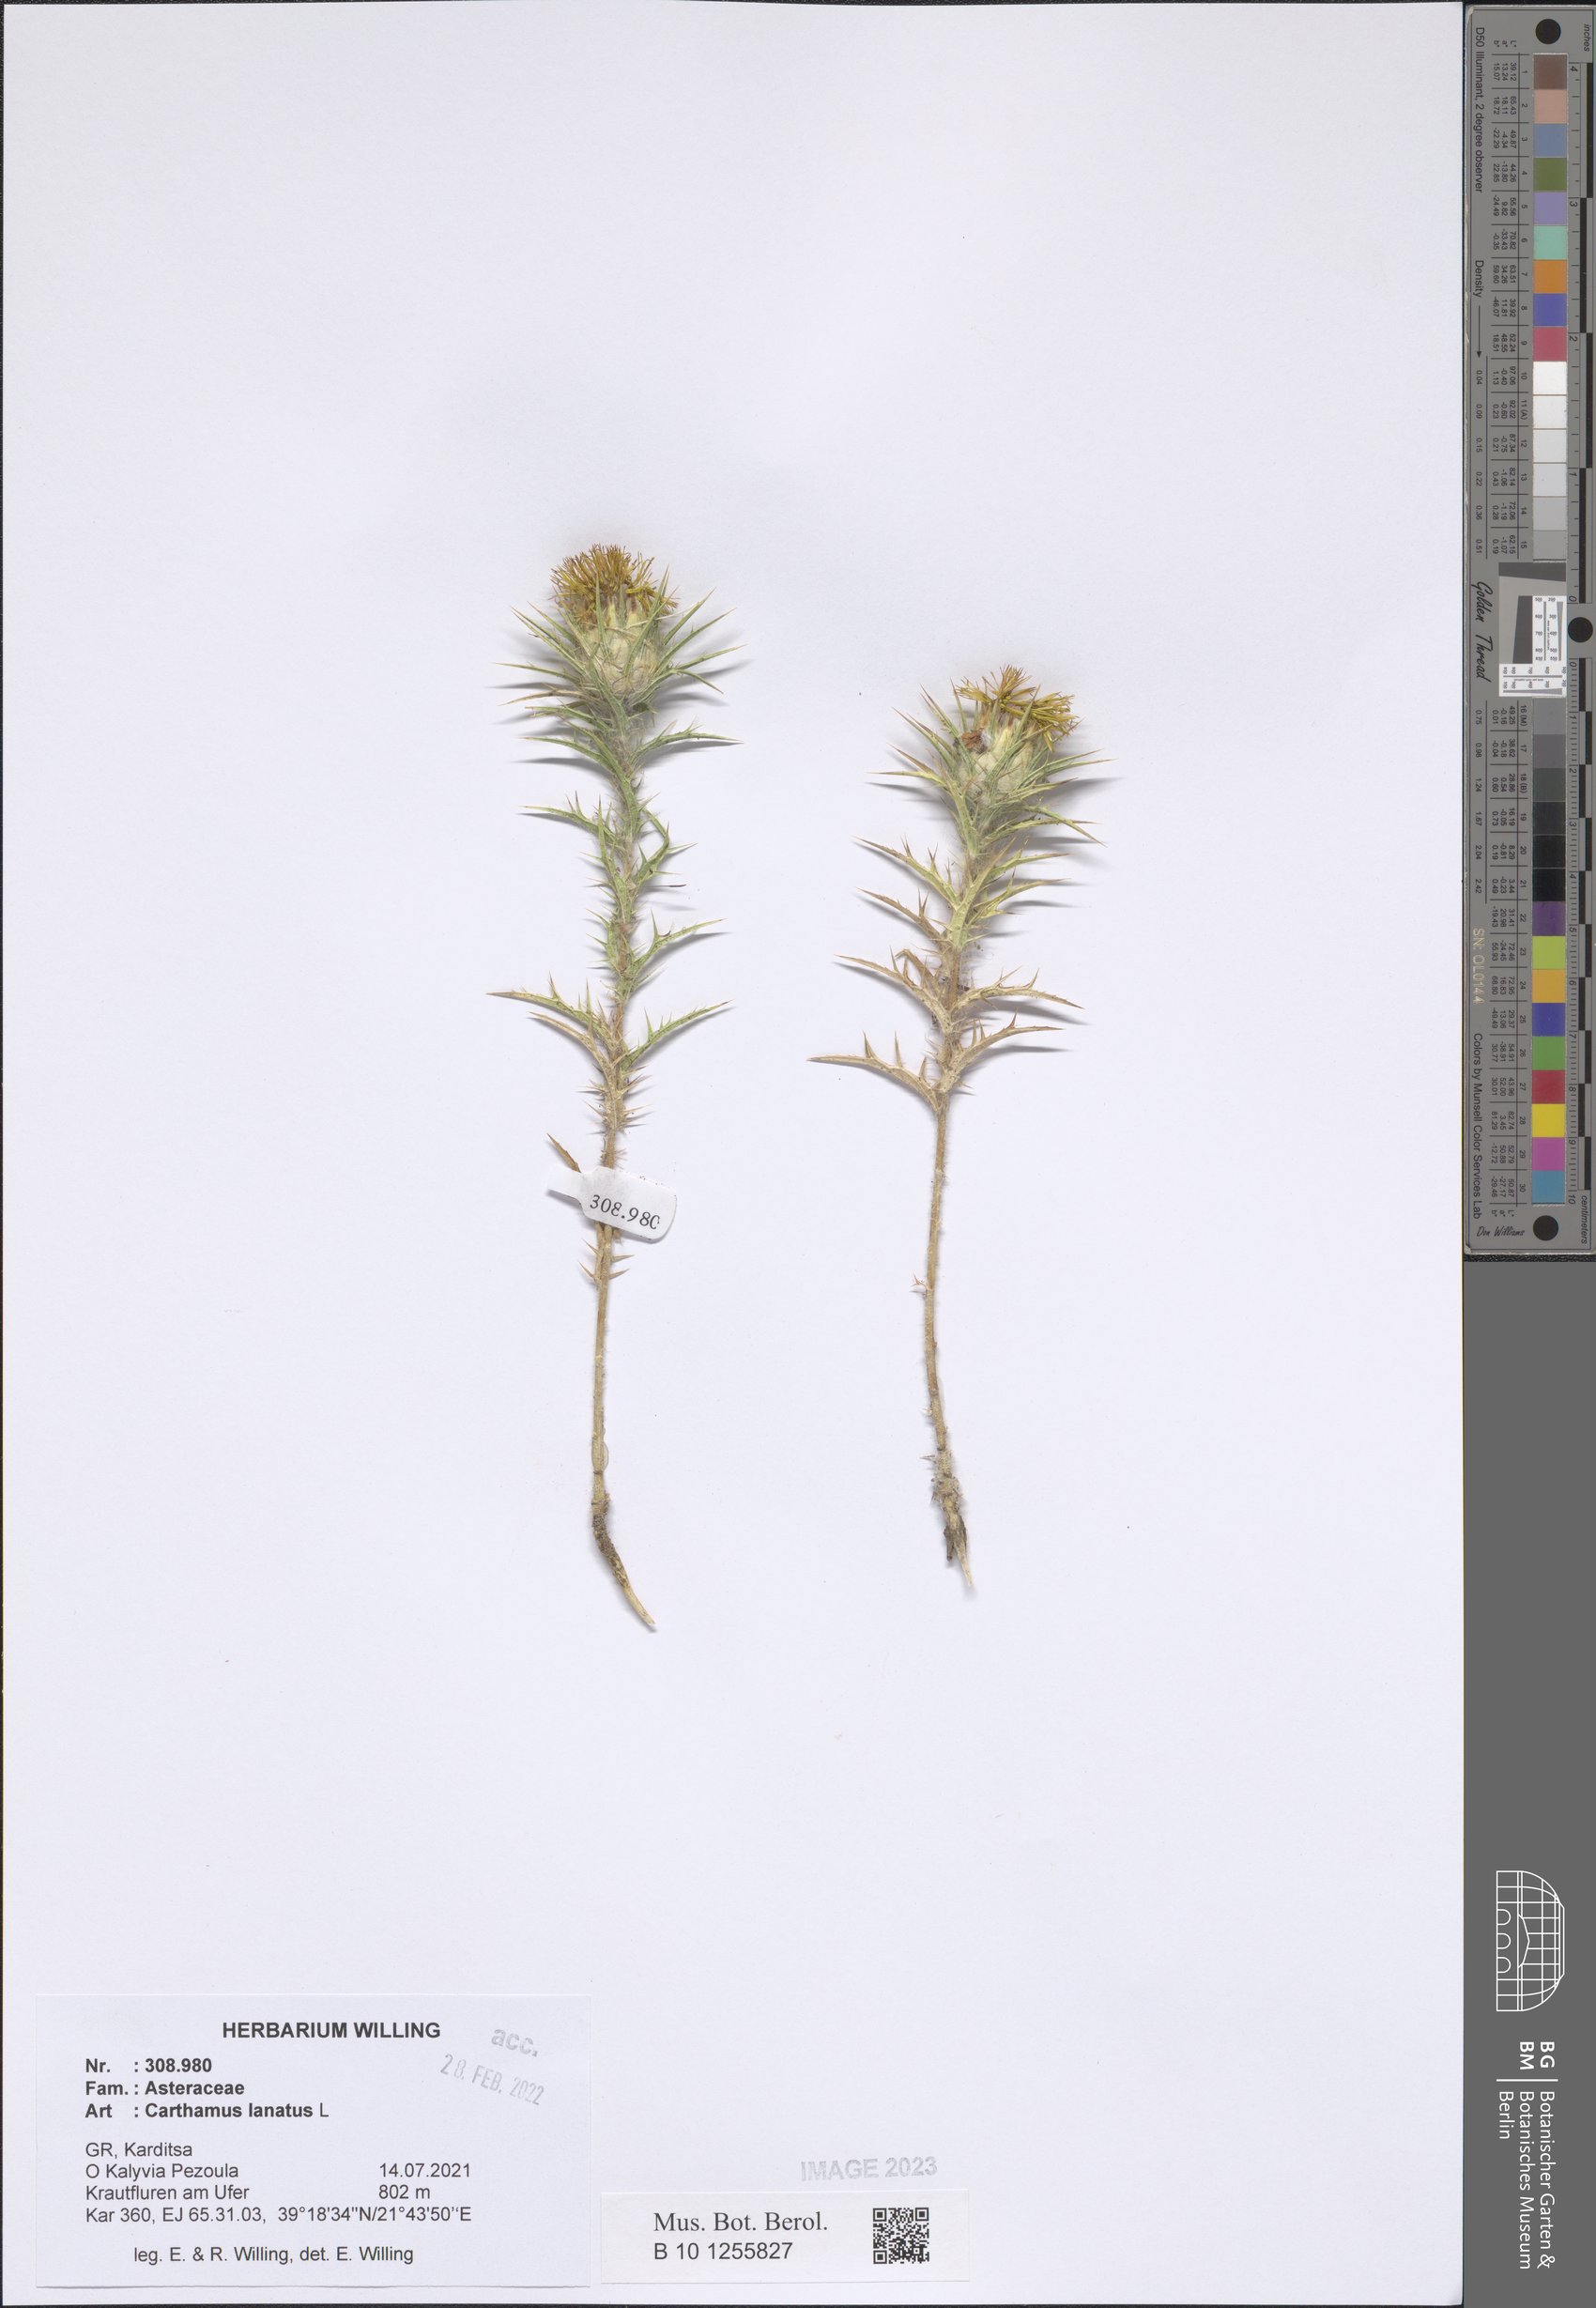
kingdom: Plantae
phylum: Tracheophyta
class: Magnoliopsida
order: Asterales
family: Asteraceae
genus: Carthamus
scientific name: Carthamus lanatus
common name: Downy safflower
